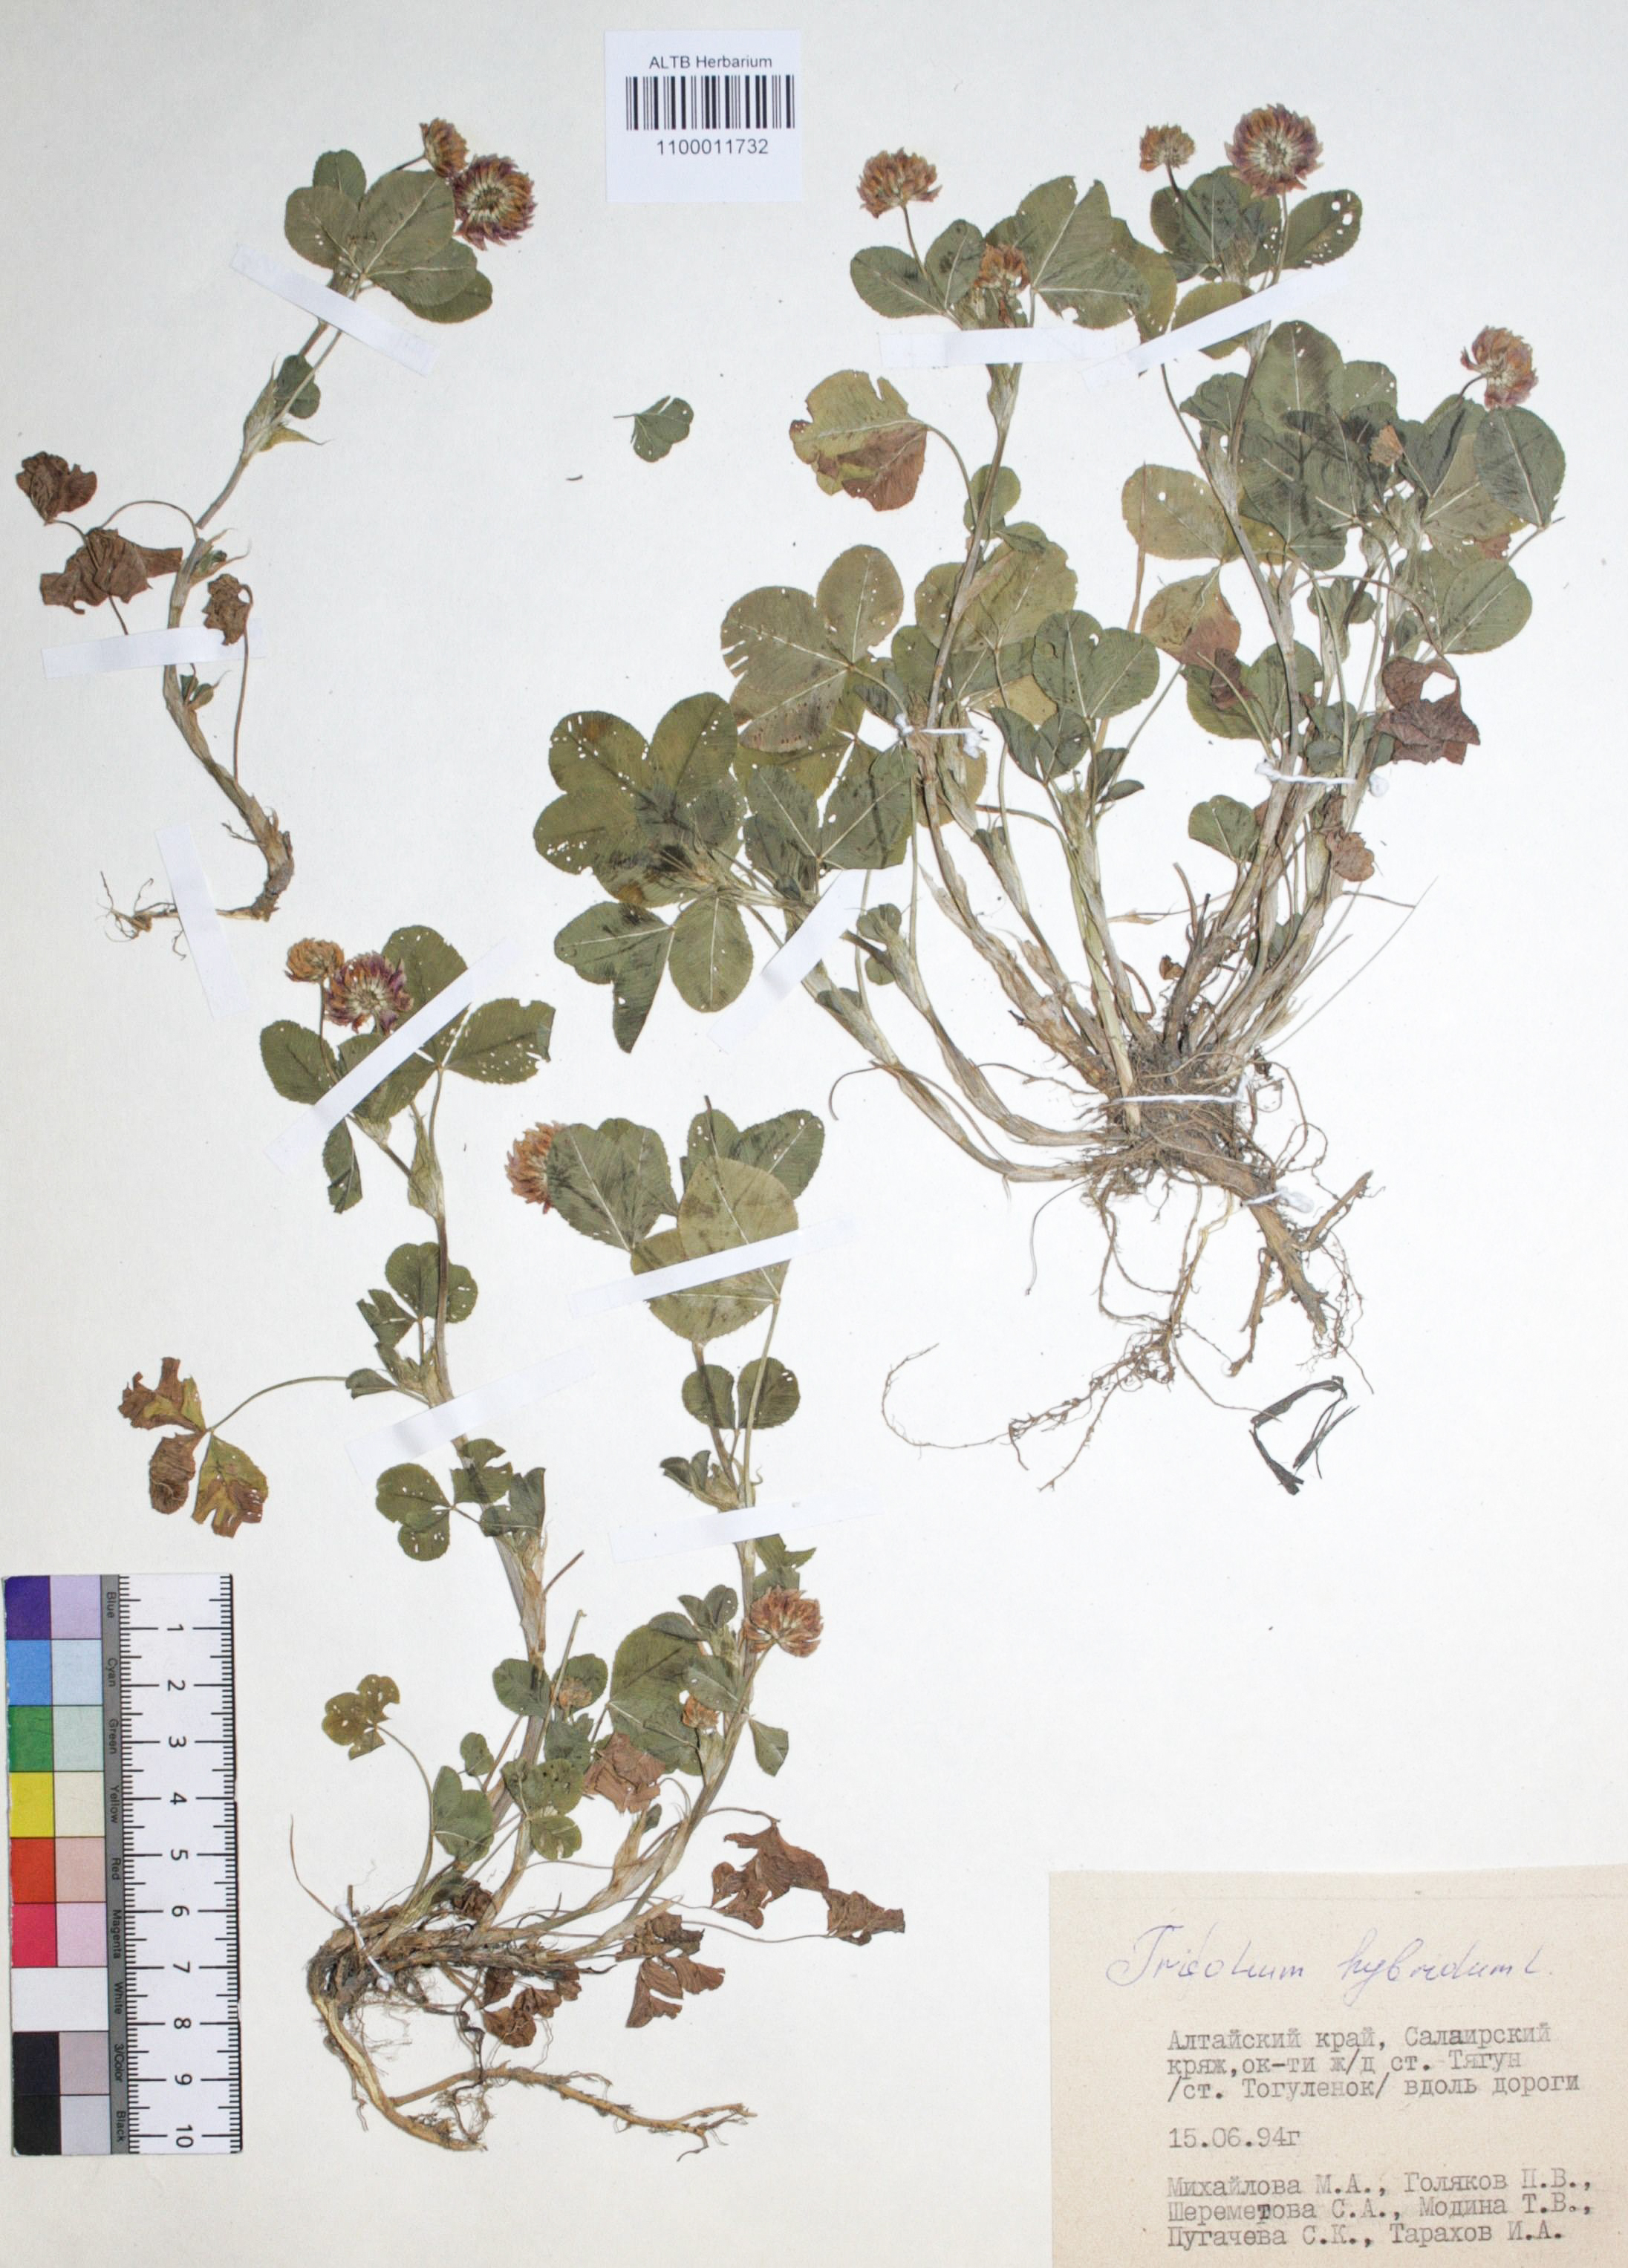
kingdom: Plantae
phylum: Tracheophyta
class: Magnoliopsida
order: Fabales
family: Fabaceae
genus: Trifolium
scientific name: Trifolium hybridum
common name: Alsike clover
